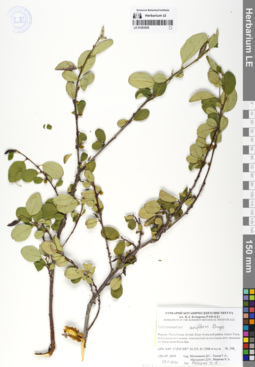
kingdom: Plantae
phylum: Tracheophyta
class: Magnoliopsida
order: Rosales
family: Rosaceae
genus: Cotoneaster
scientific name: Cotoneaster uniflorus
